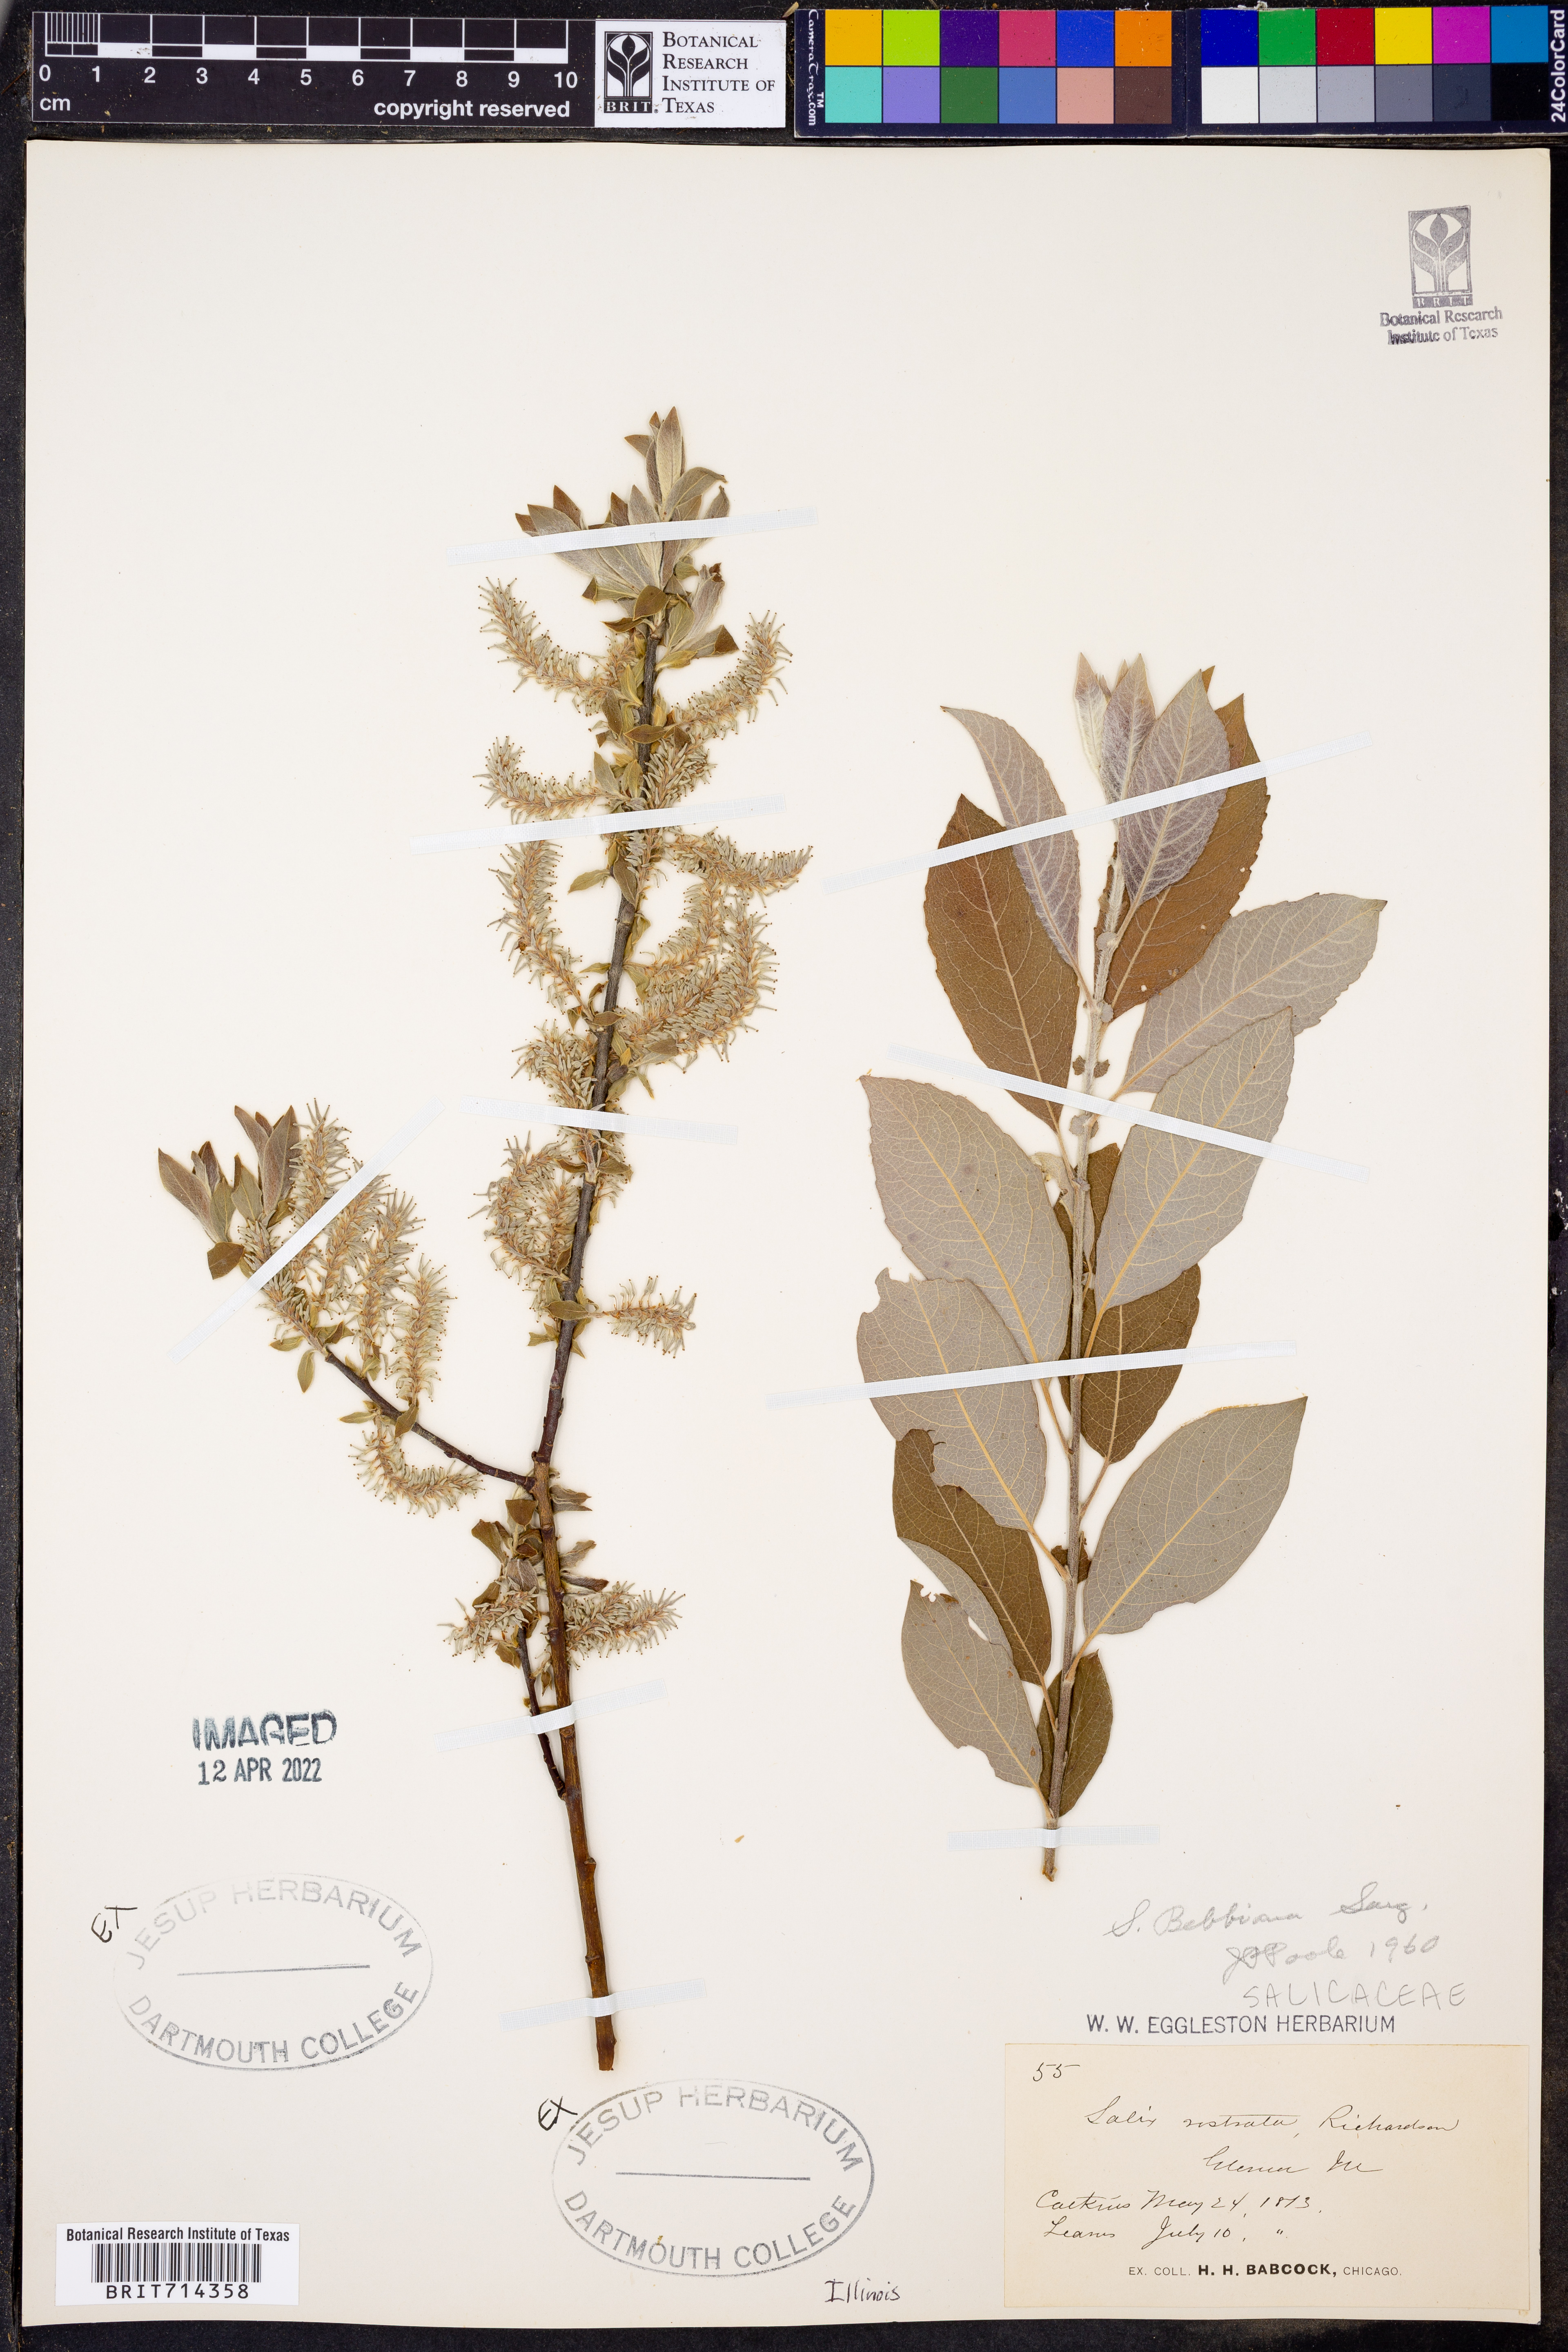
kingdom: Plantae
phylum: Tracheophyta
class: Magnoliopsida
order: Malpighiales
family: Salicaceae
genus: Salix
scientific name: Salix bebbiana
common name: Bebb's willow
